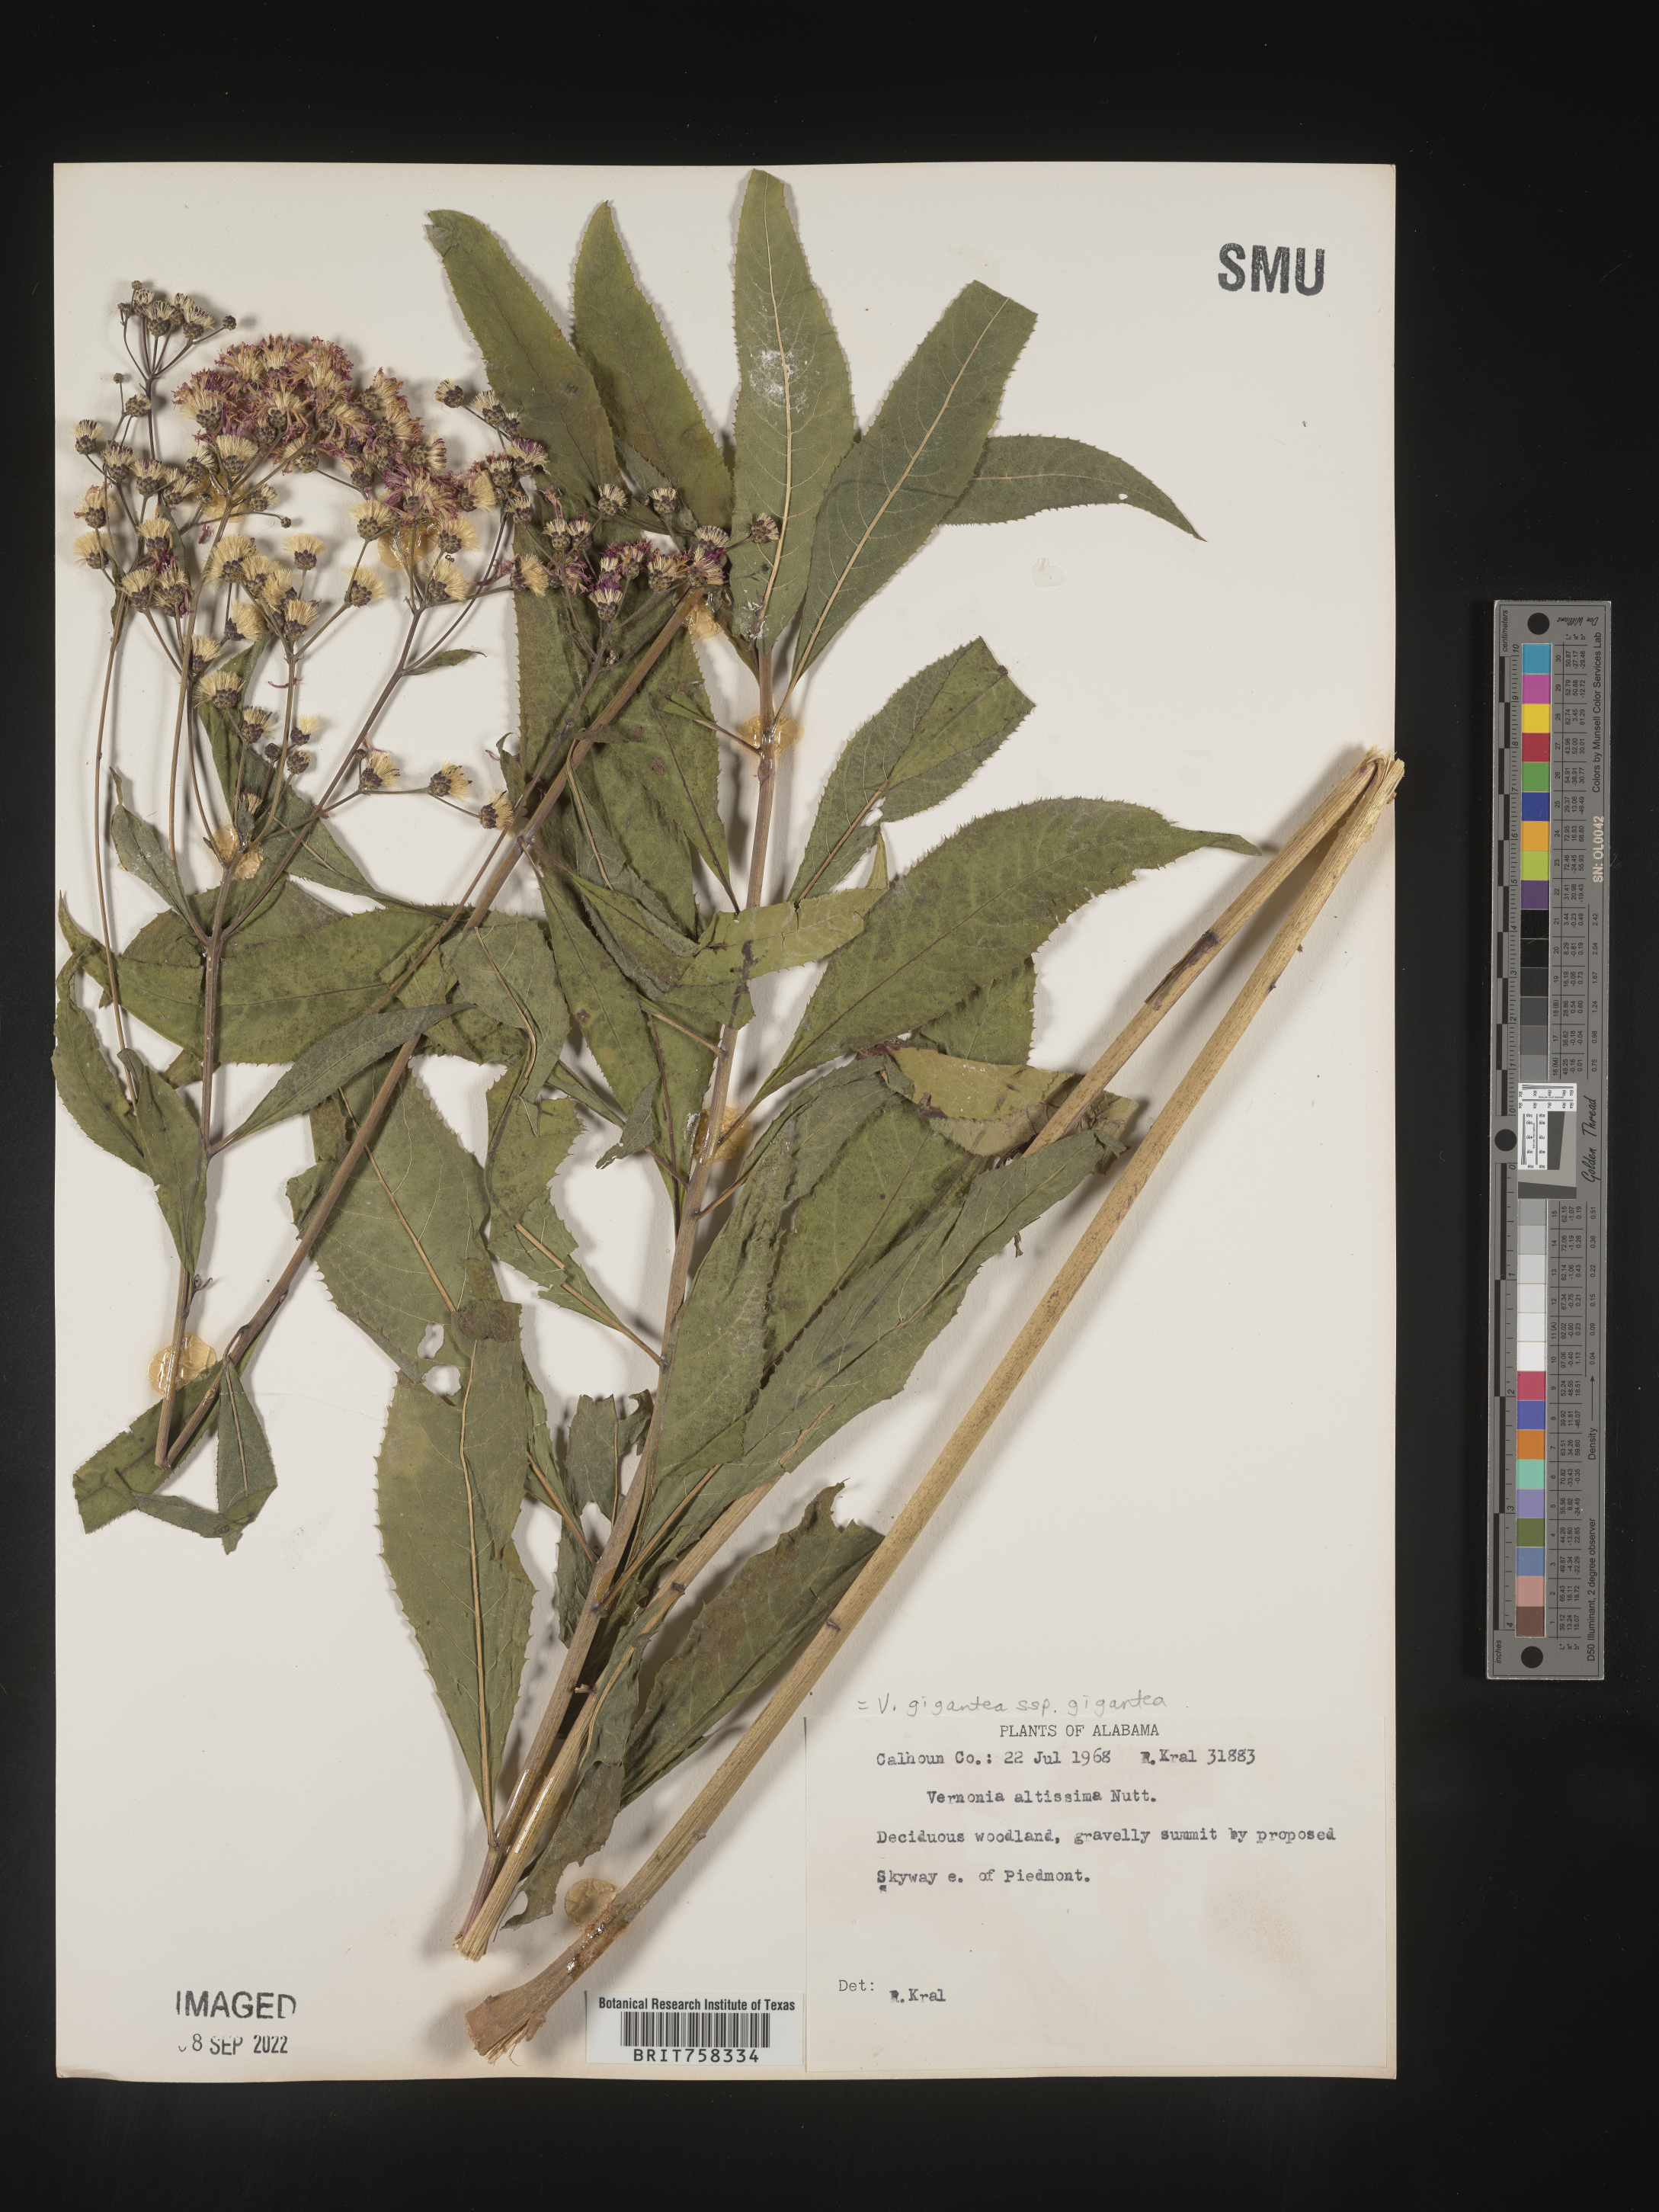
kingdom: Plantae
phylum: Tracheophyta
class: Magnoliopsida
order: Asterales
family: Asteraceae
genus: Vernonia
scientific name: Vernonia gigantea
